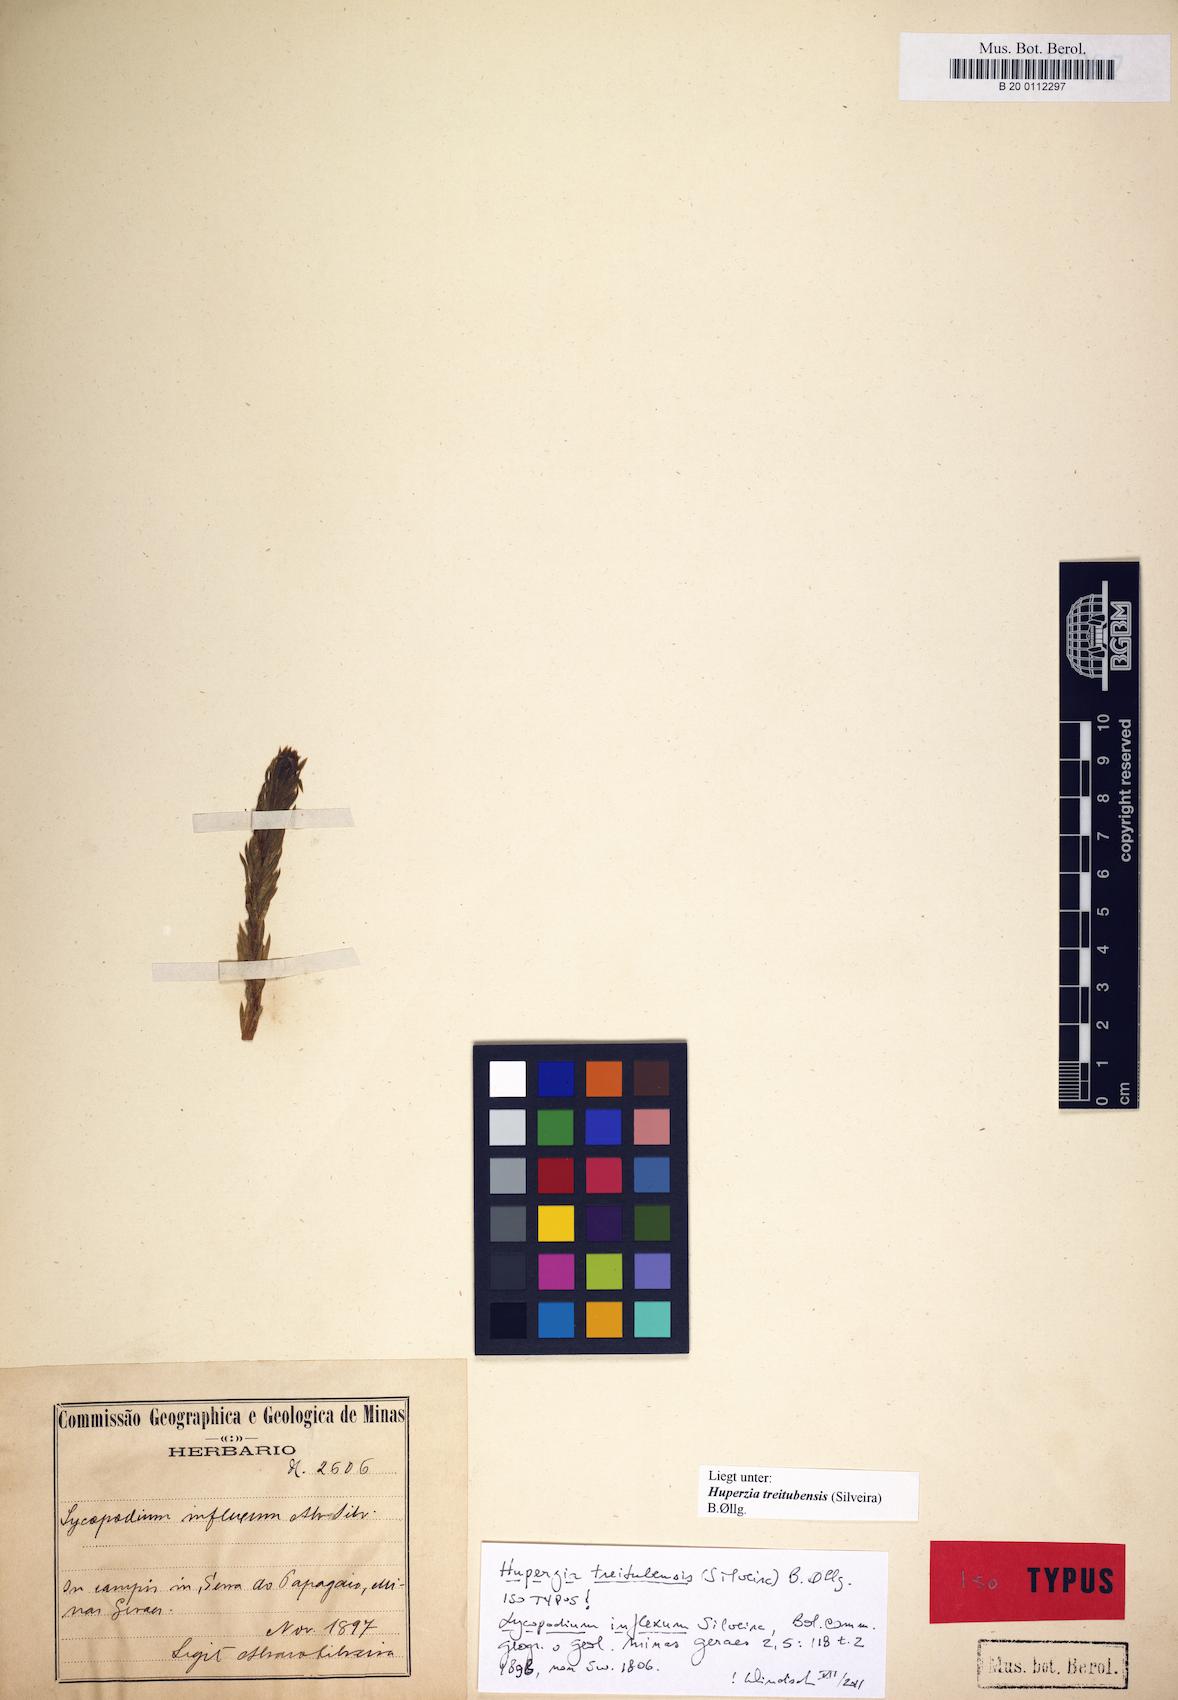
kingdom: Plantae
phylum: Tracheophyta
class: Lycopodiopsida
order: Lycopodiales
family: Lycopodiaceae
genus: Phlegmariurus
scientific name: Phlegmariurus treitubensis
